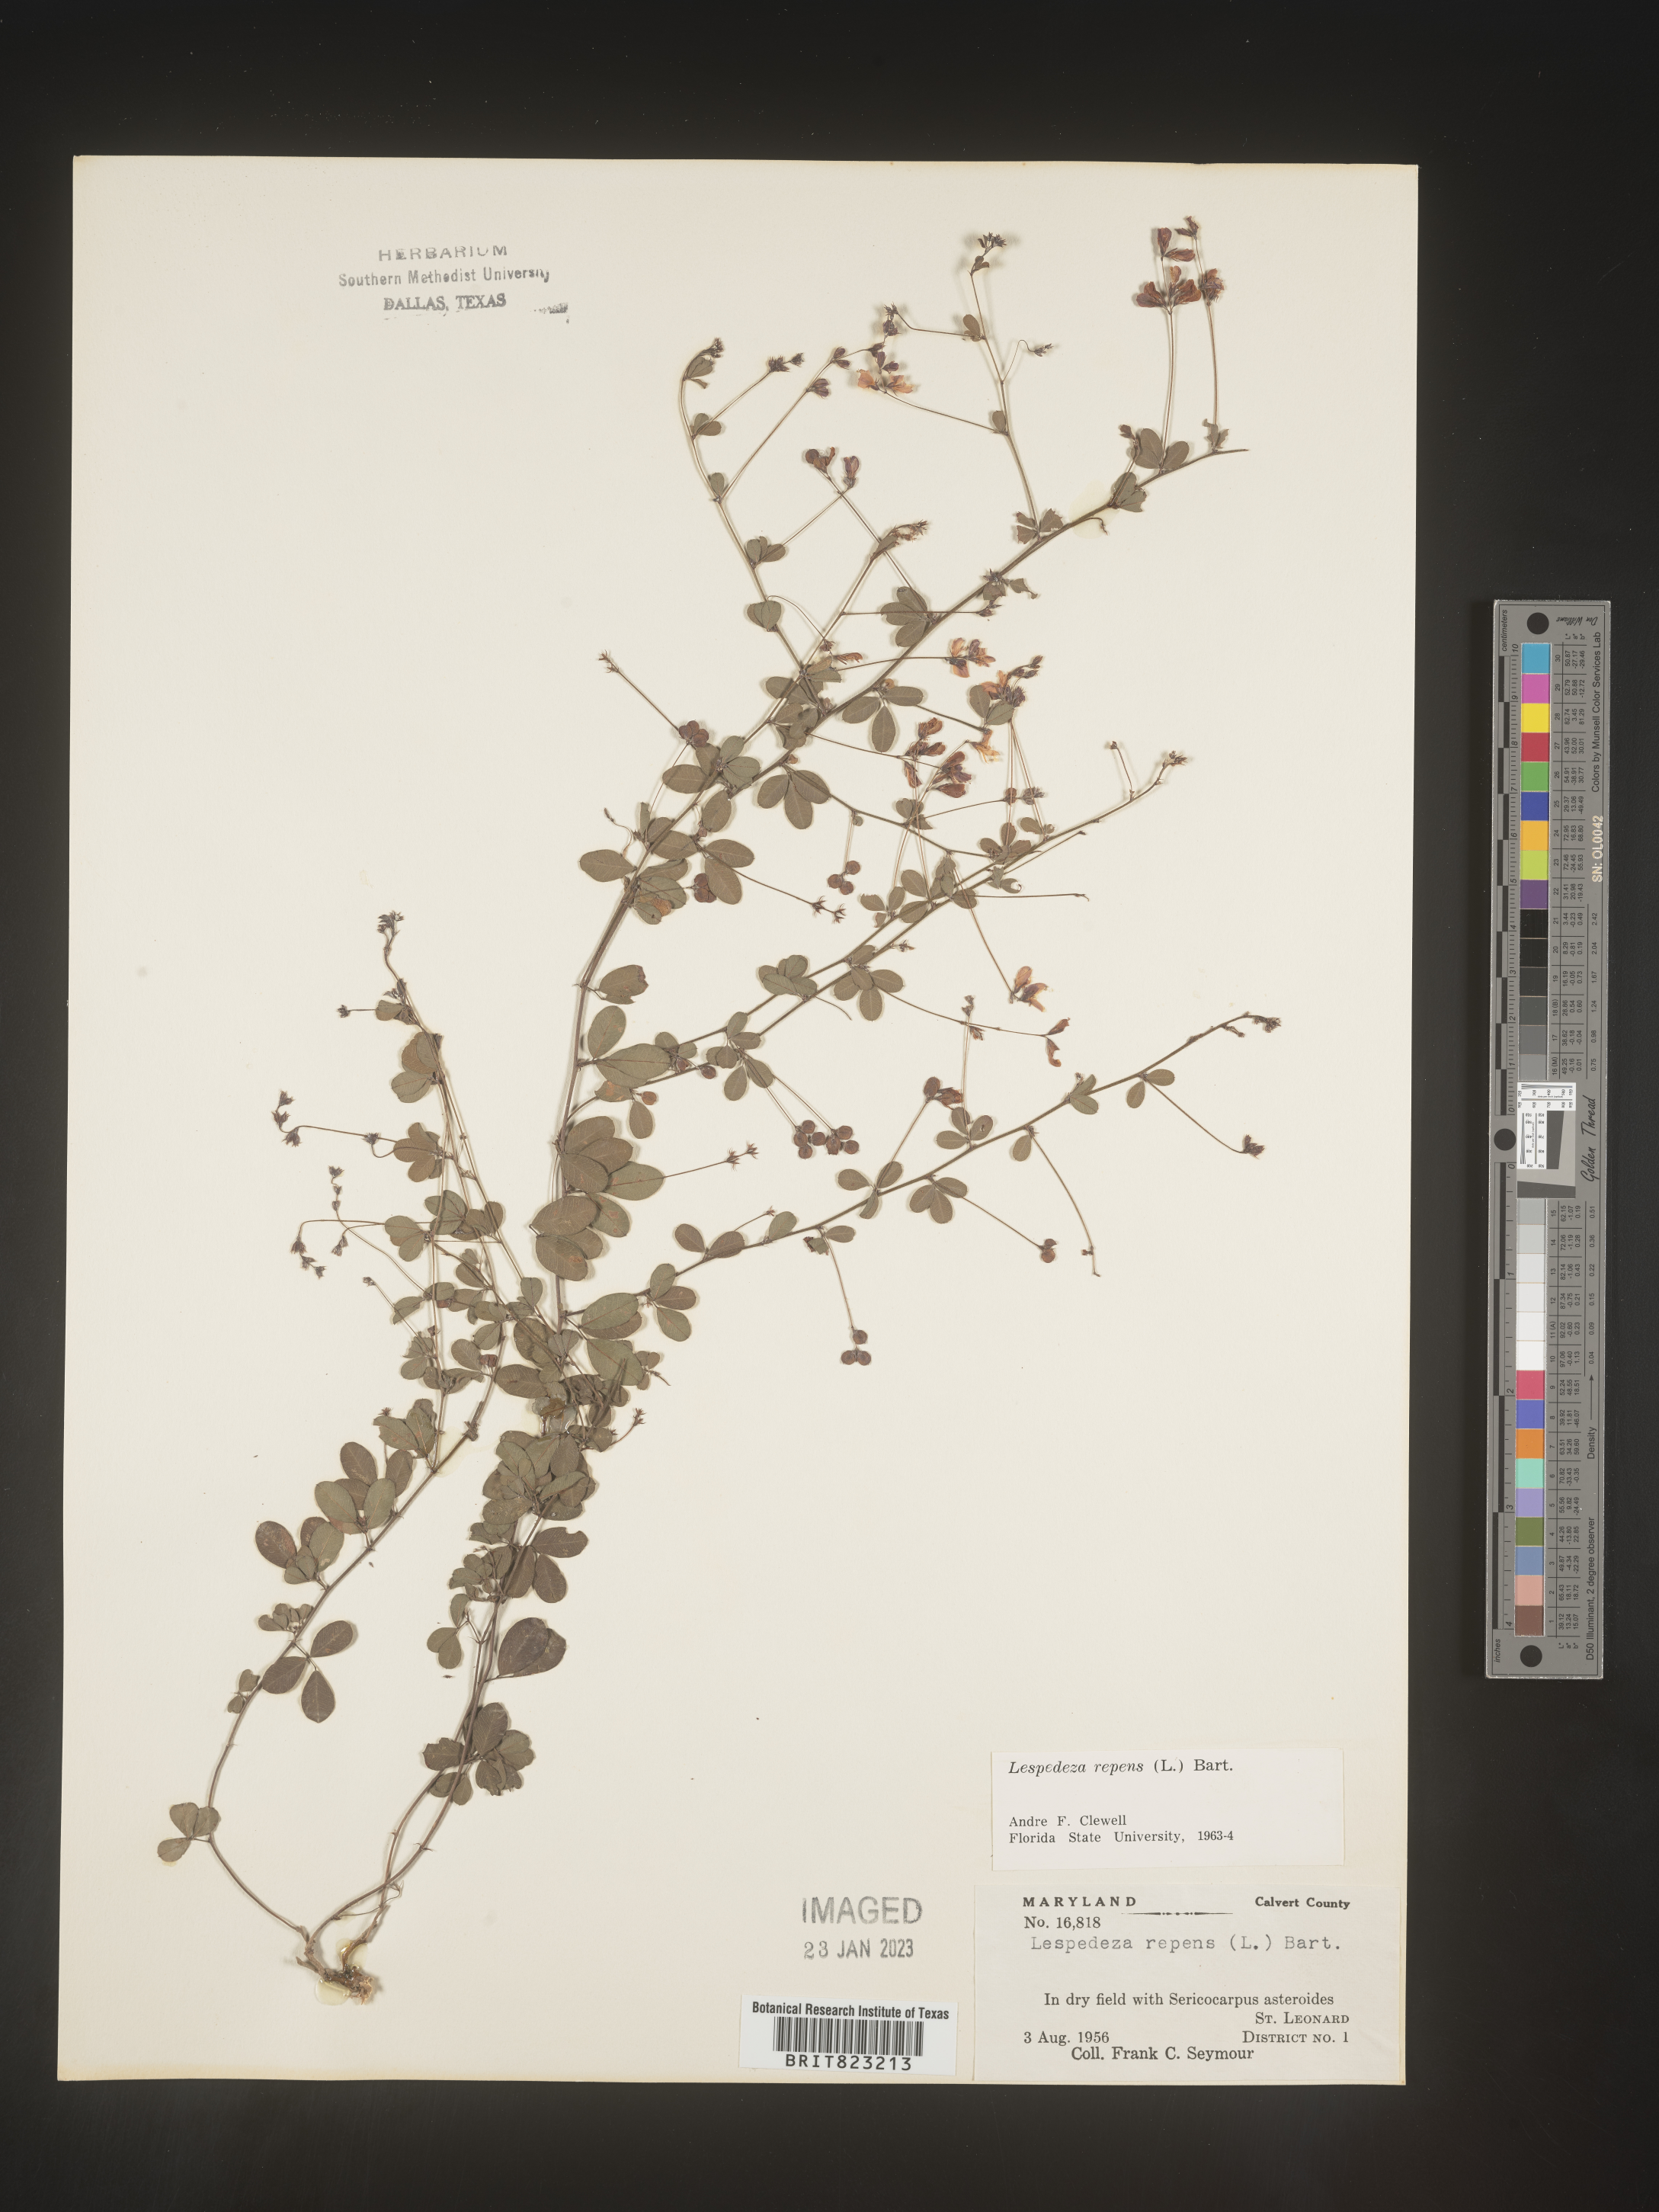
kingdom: Plantae
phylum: Tracheophyta
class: Magnoliopsida
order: Fabales
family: Fabaceae
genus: Lespedeza
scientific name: Lespedeza repens
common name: Creeping bush-clover
